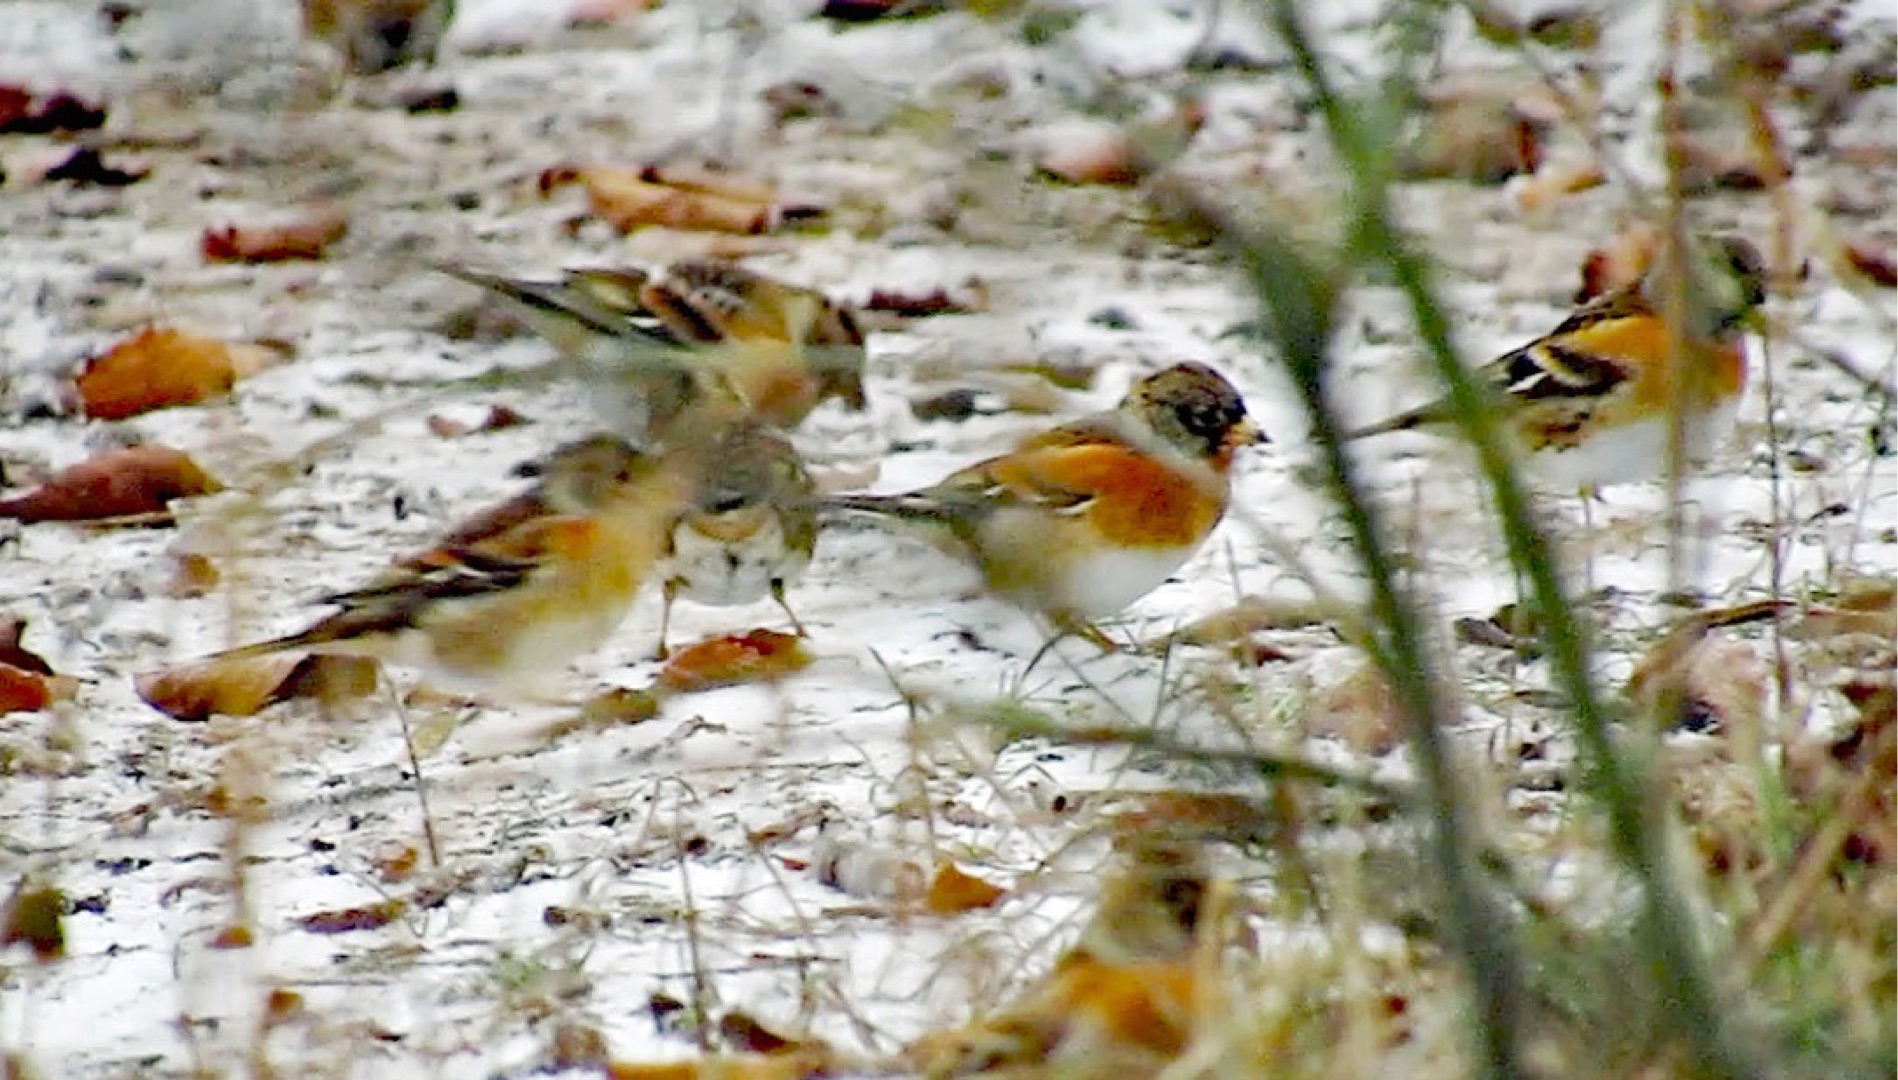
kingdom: Animalia
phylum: Chordata
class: Aves
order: Passeriformes
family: Fringillidae
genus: Fringilla
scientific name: Fringilla montifringilla
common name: Kvækerfinke
